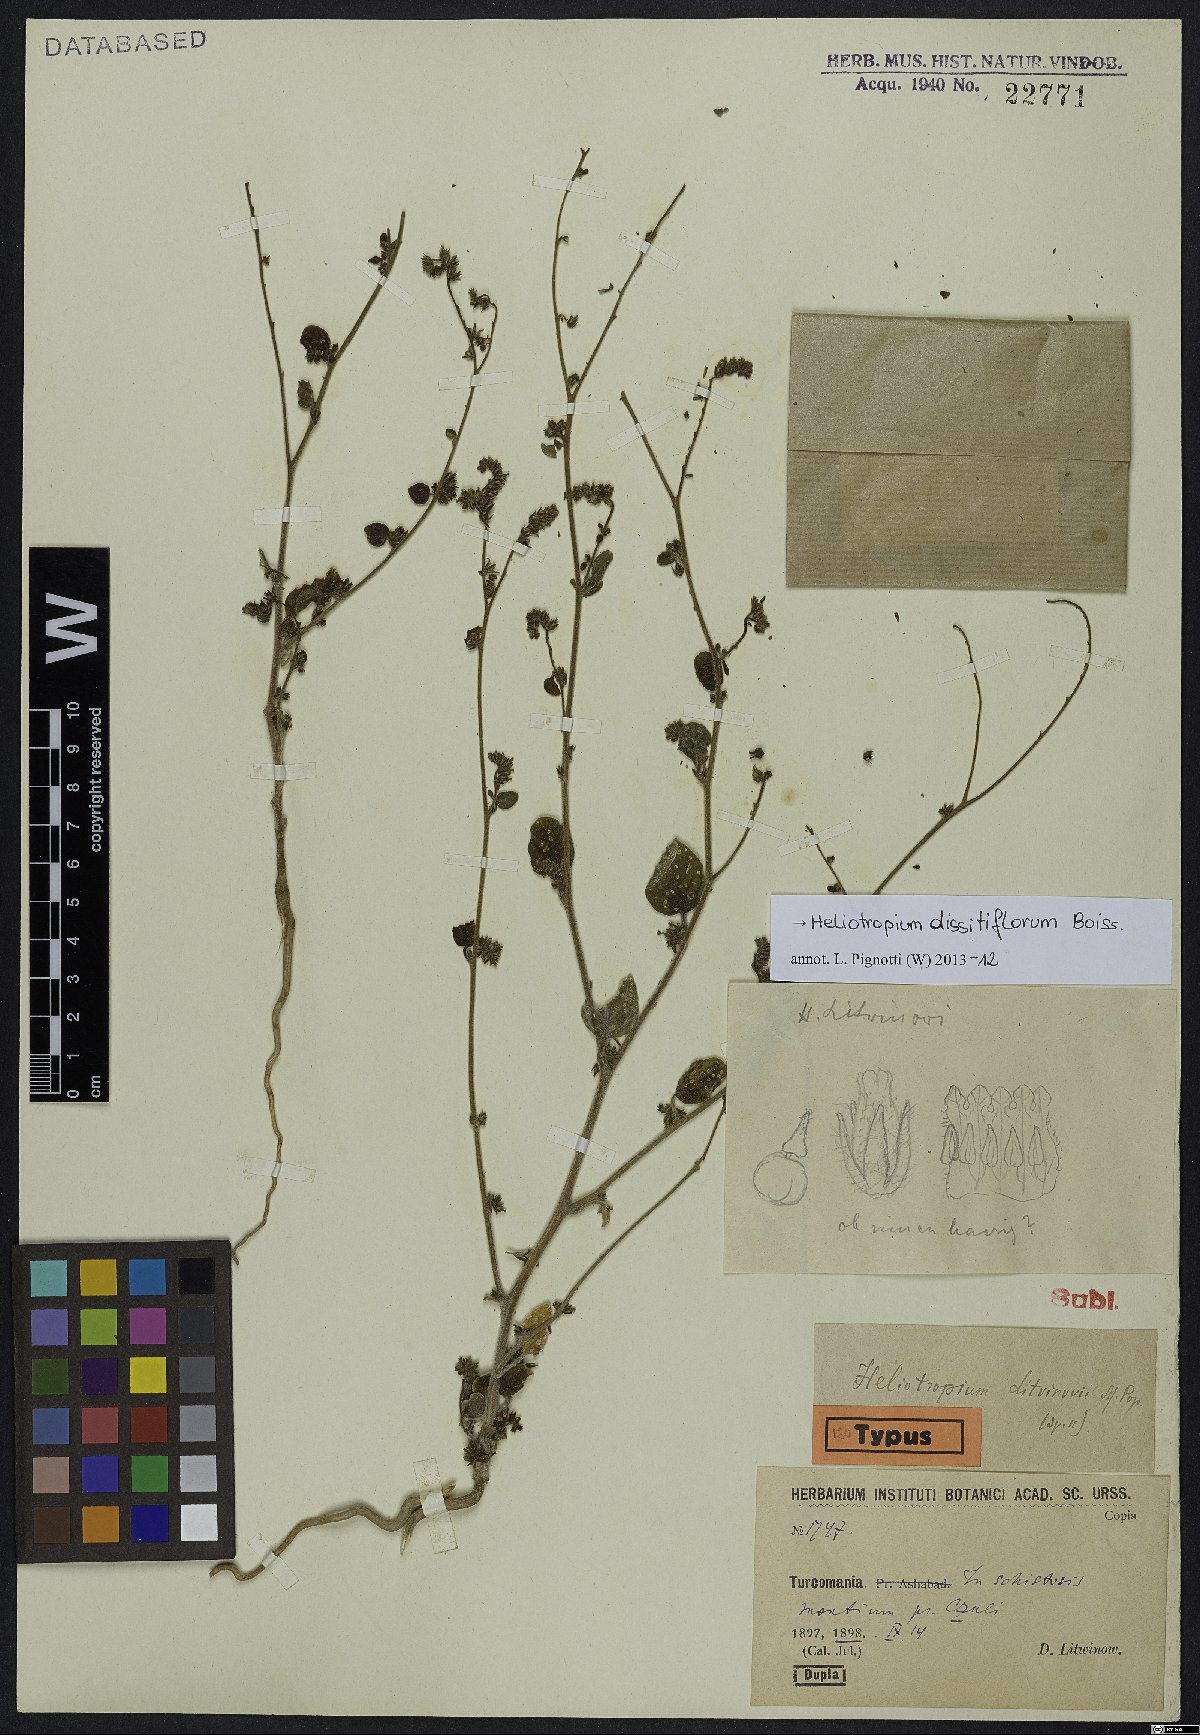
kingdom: Plantae
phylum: Tracheophyta
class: Magnoliopsida
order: Boraginales
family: Heliotropiaceae
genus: Heliotropium
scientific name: Heliotropium dissitiflorum
